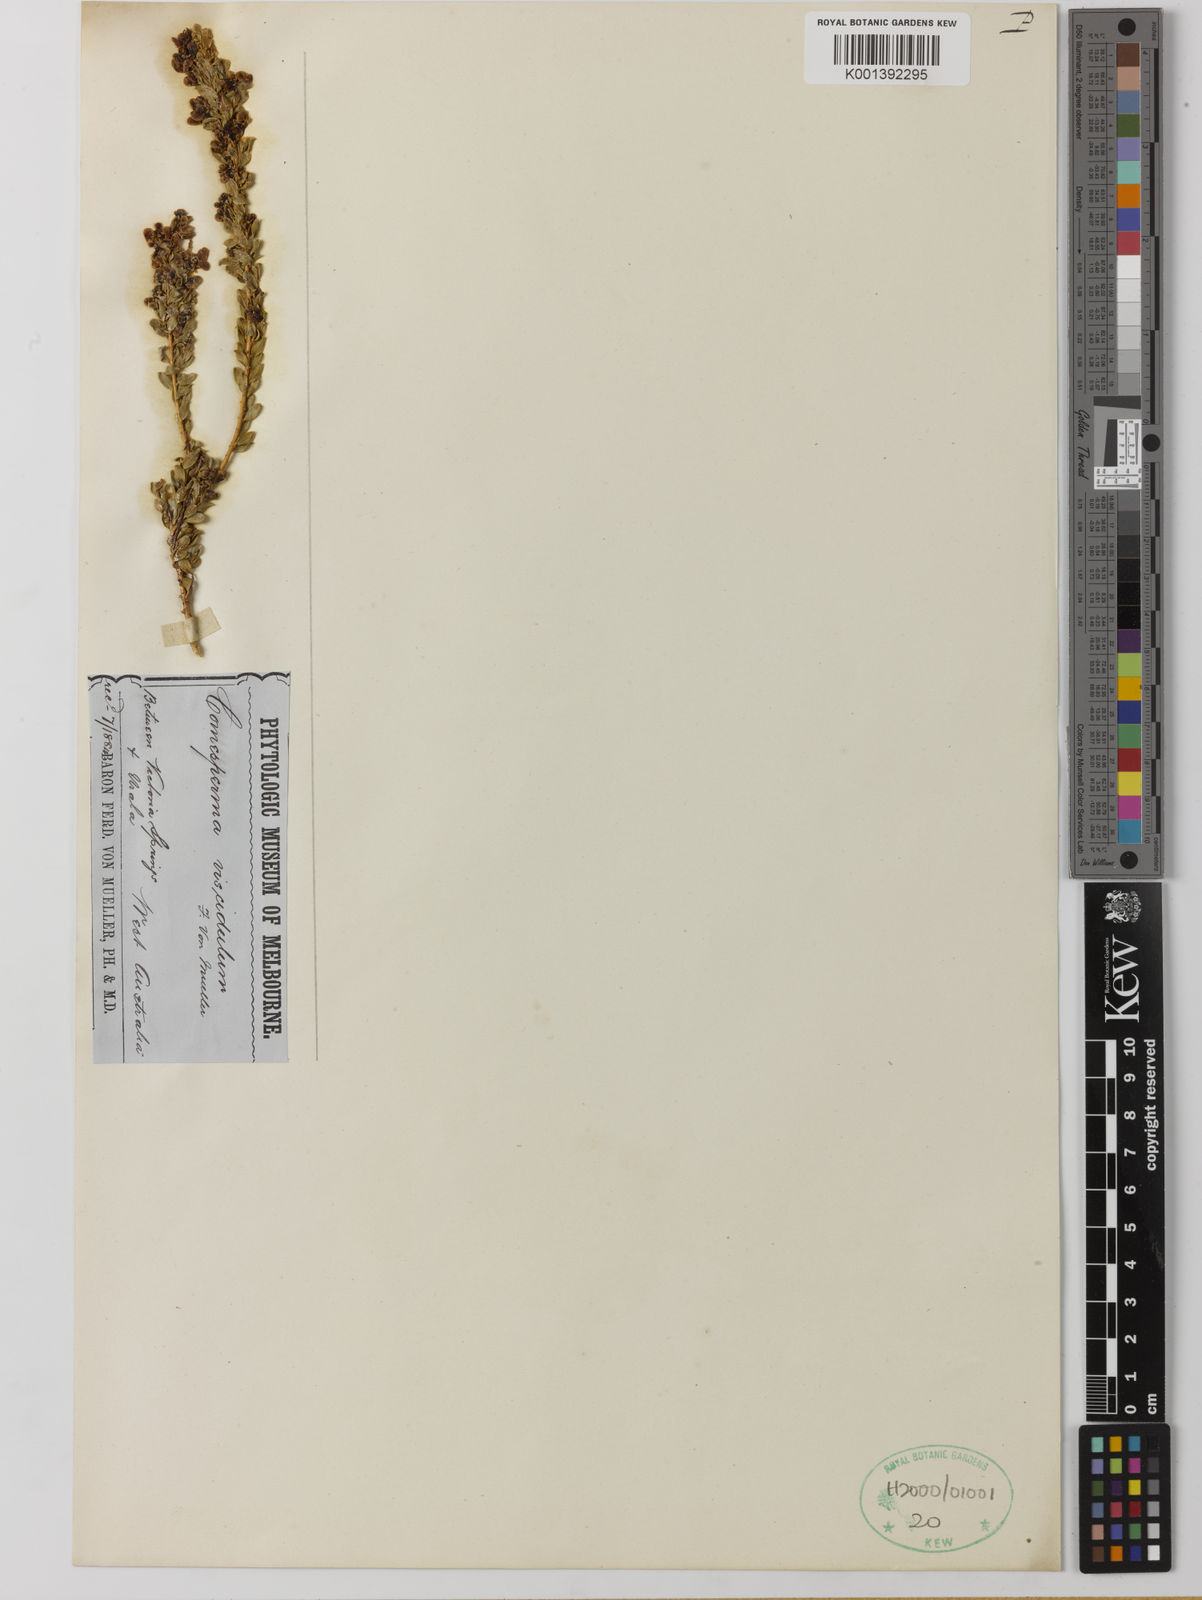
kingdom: Plantae
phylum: Tracheophyta
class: Magnoliopsida
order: Fabales
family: Polygalaceae
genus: Comesperma
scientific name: Comesperma viscidulum
